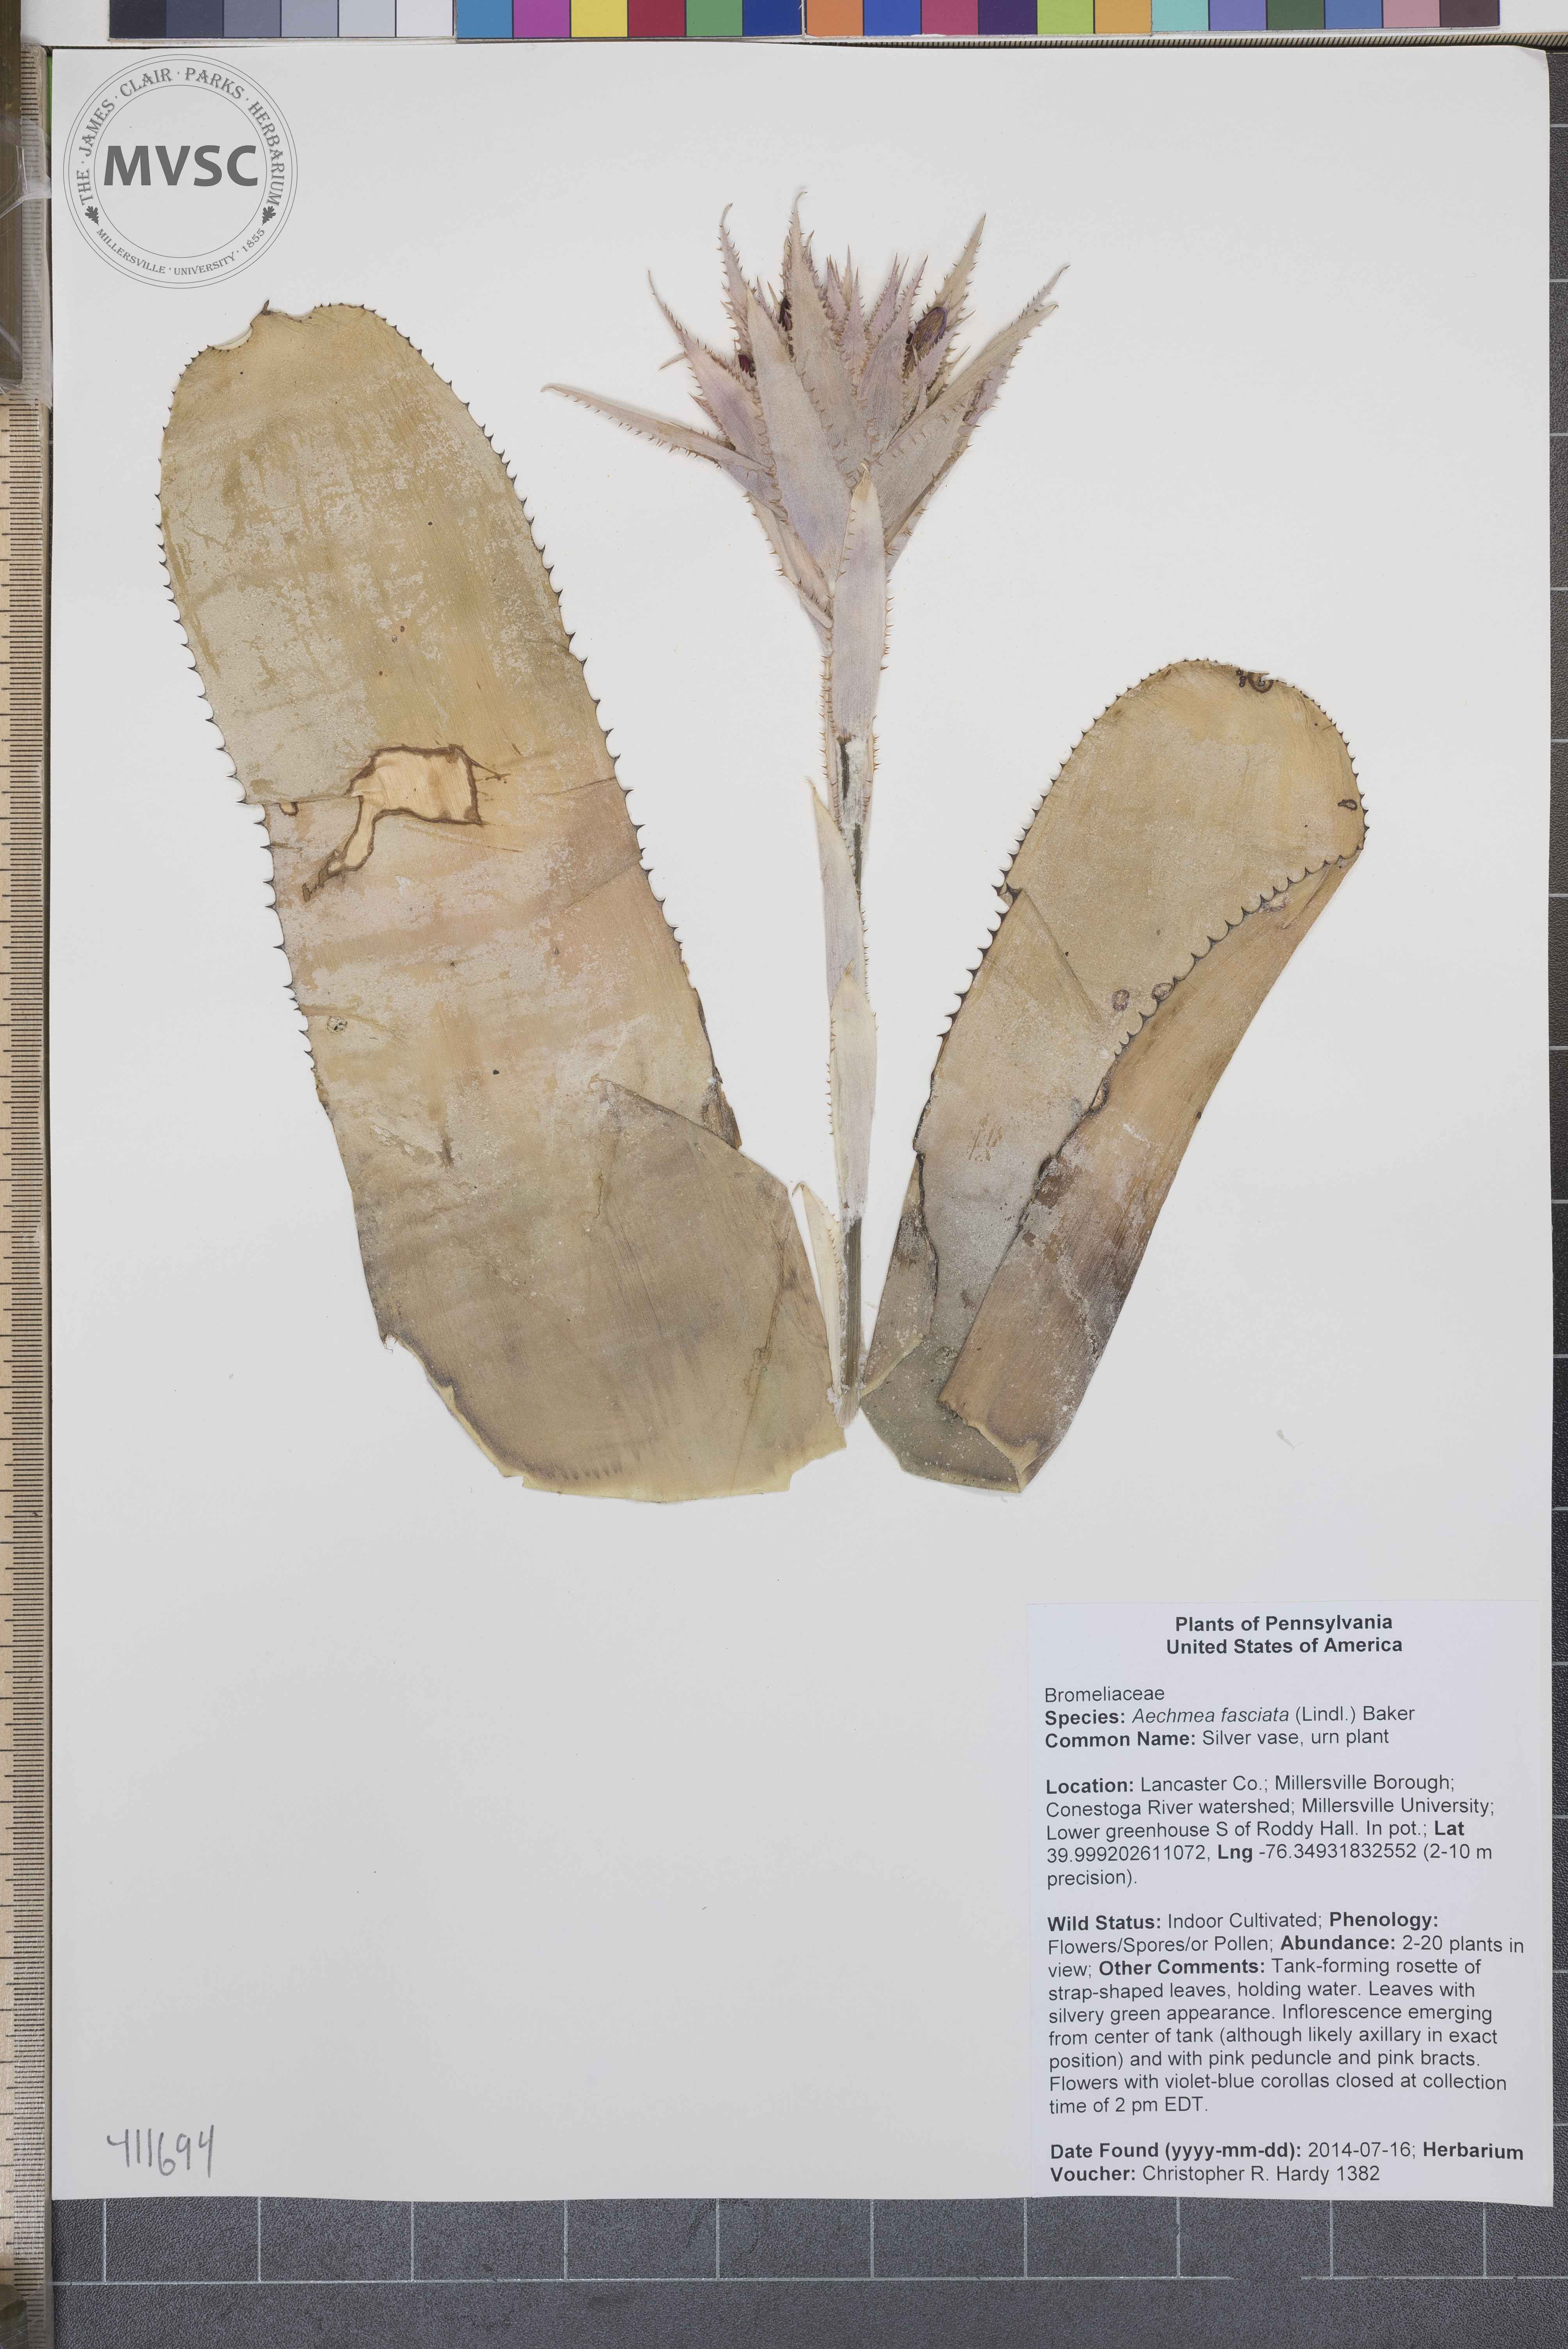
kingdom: Plantae
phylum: Tracheophyta
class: Liliopsida
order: Poales
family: Bromeliaceae
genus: Aechmea
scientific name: Aechmea fasciata
